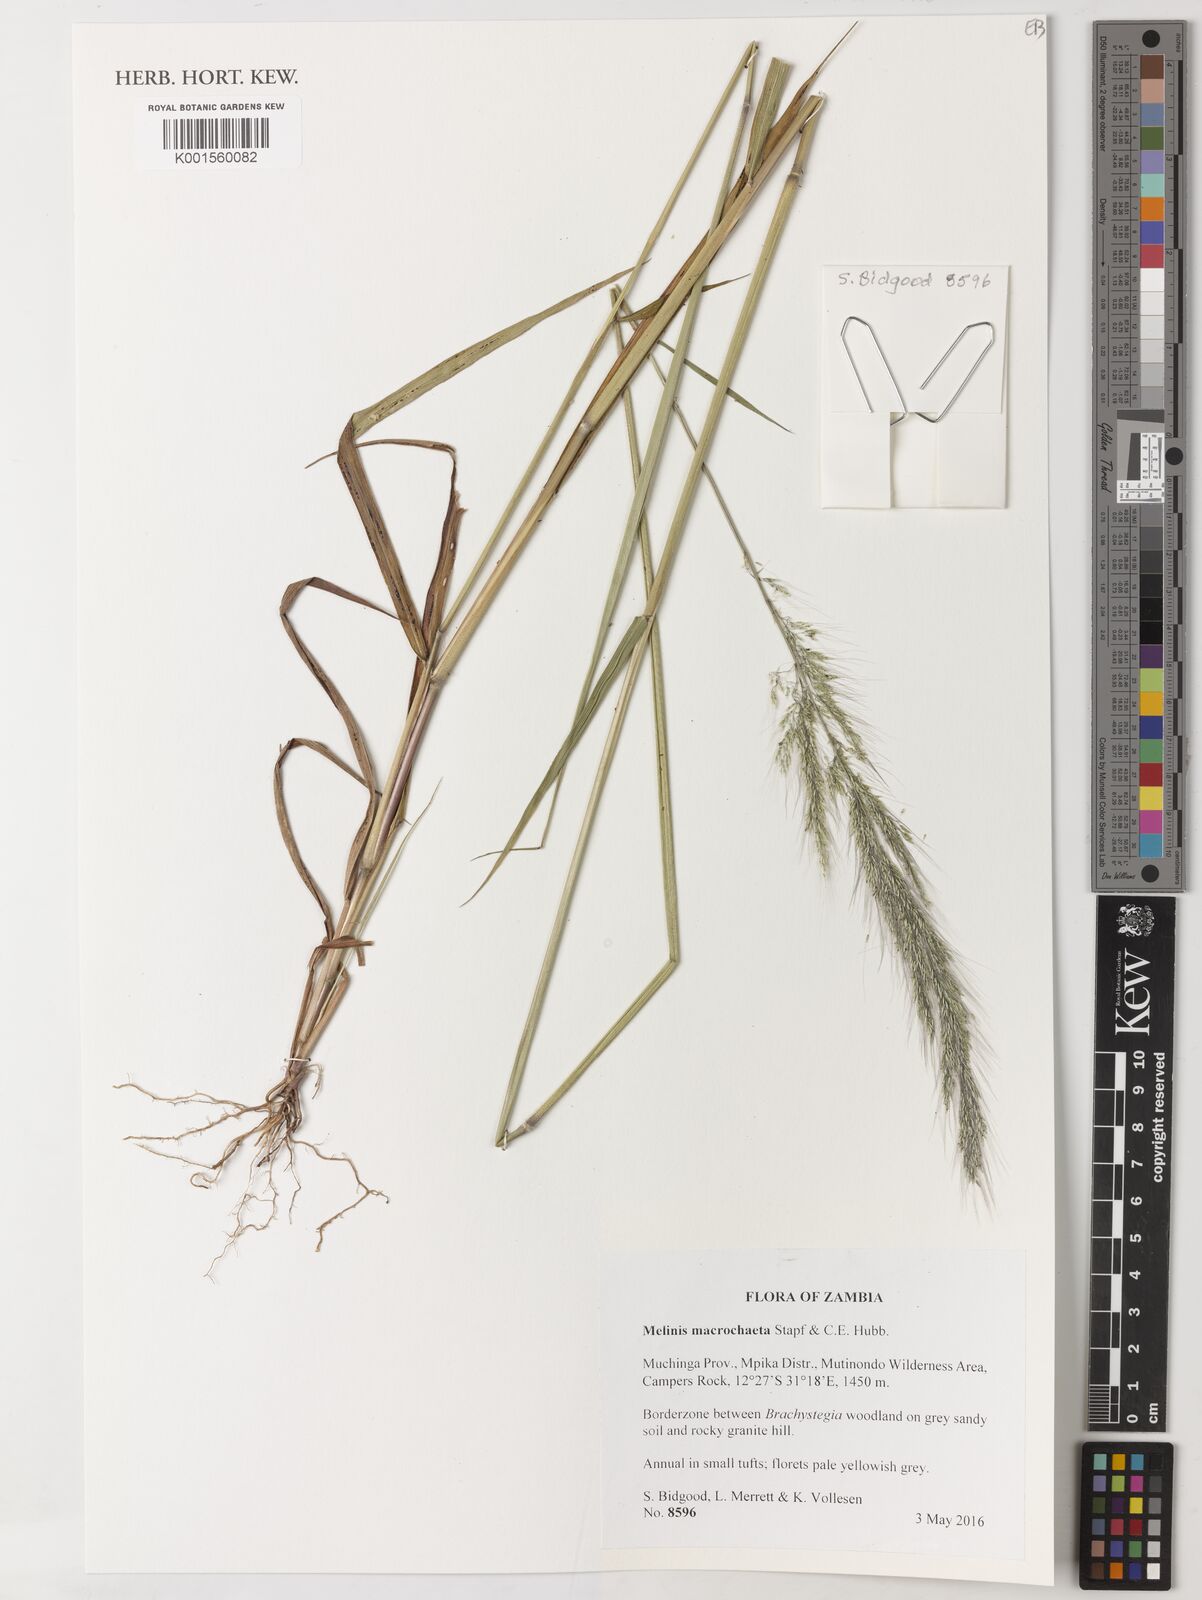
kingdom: Plantae
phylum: Tracheophyta
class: Liliopsida
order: Poales
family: Poaceae
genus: Melinis
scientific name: Melinis macrochaeta
